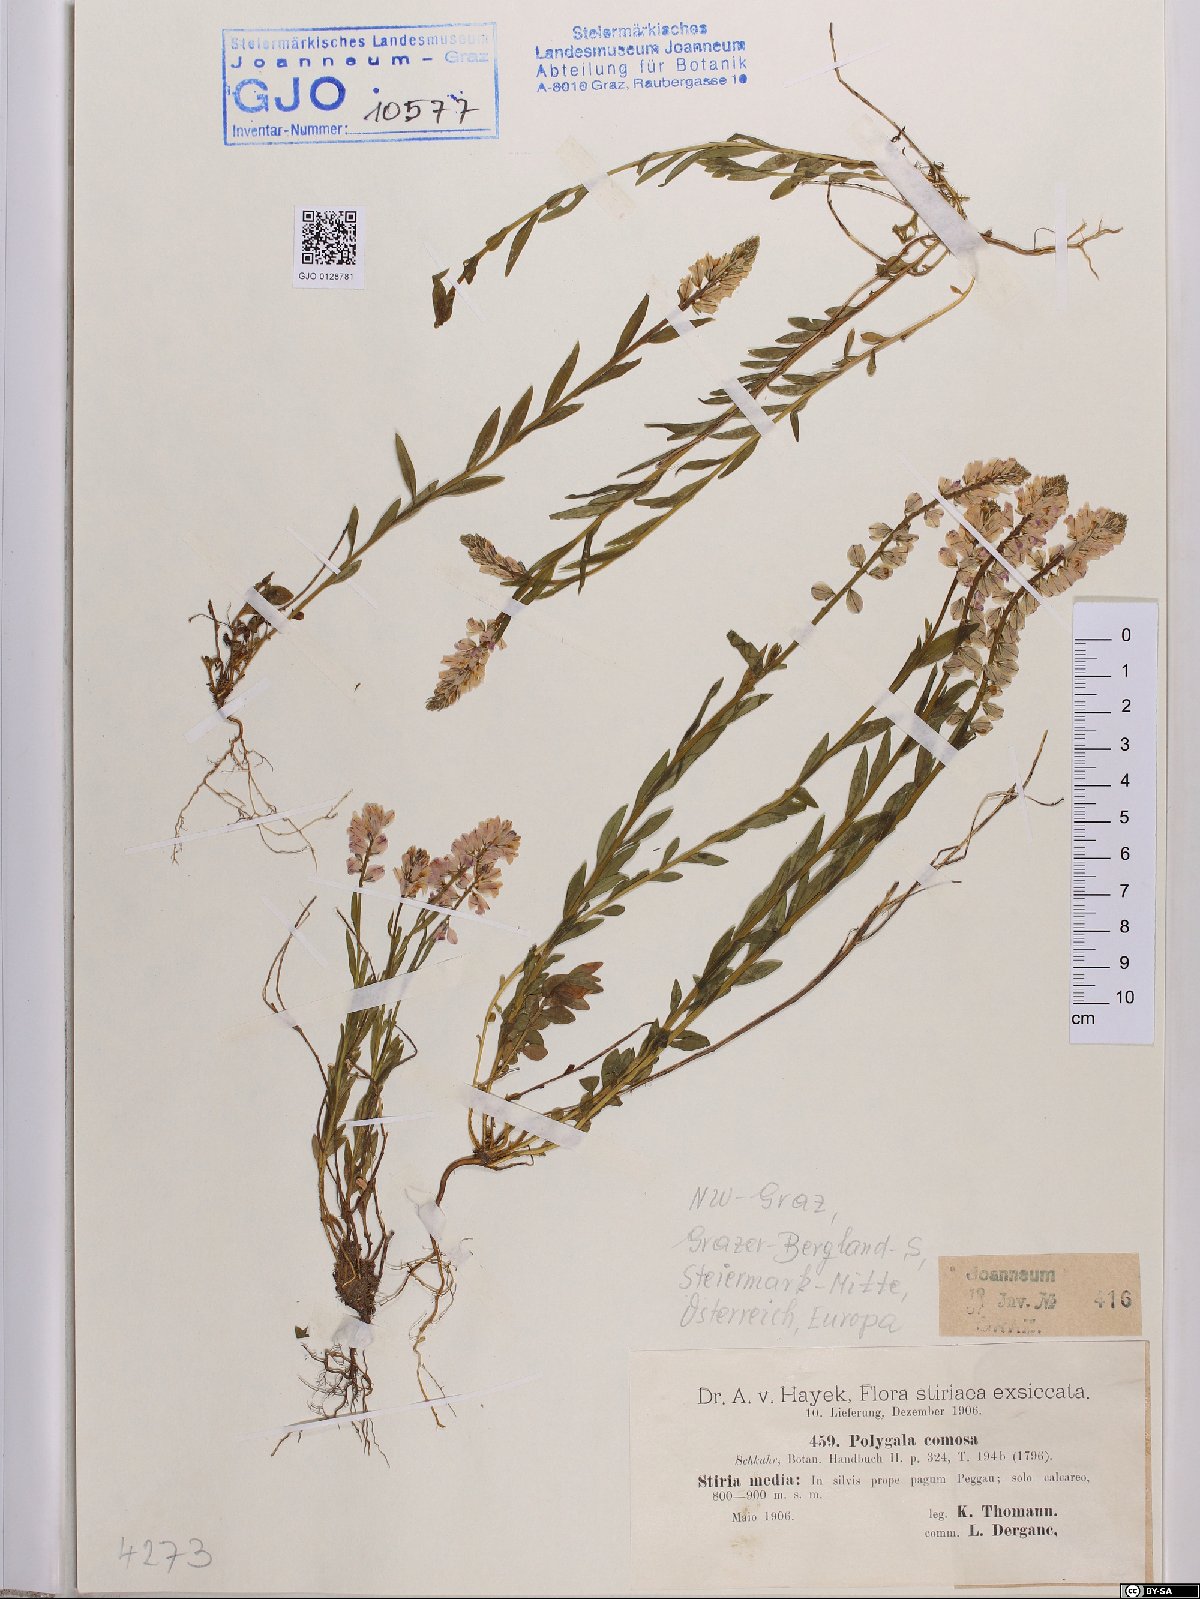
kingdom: Plantae
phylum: Tracheophyta
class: Magnoliopsida
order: Fabales
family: Polygalaceae
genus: Polygala
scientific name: Polygala comosa
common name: Tufted milkwort
